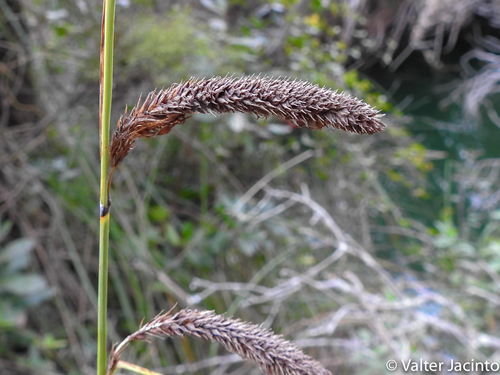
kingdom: Plantae
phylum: Tracheophyta
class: Liliopsida
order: Poales
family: Cyperaceae
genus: Carex
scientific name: Carex hispida
